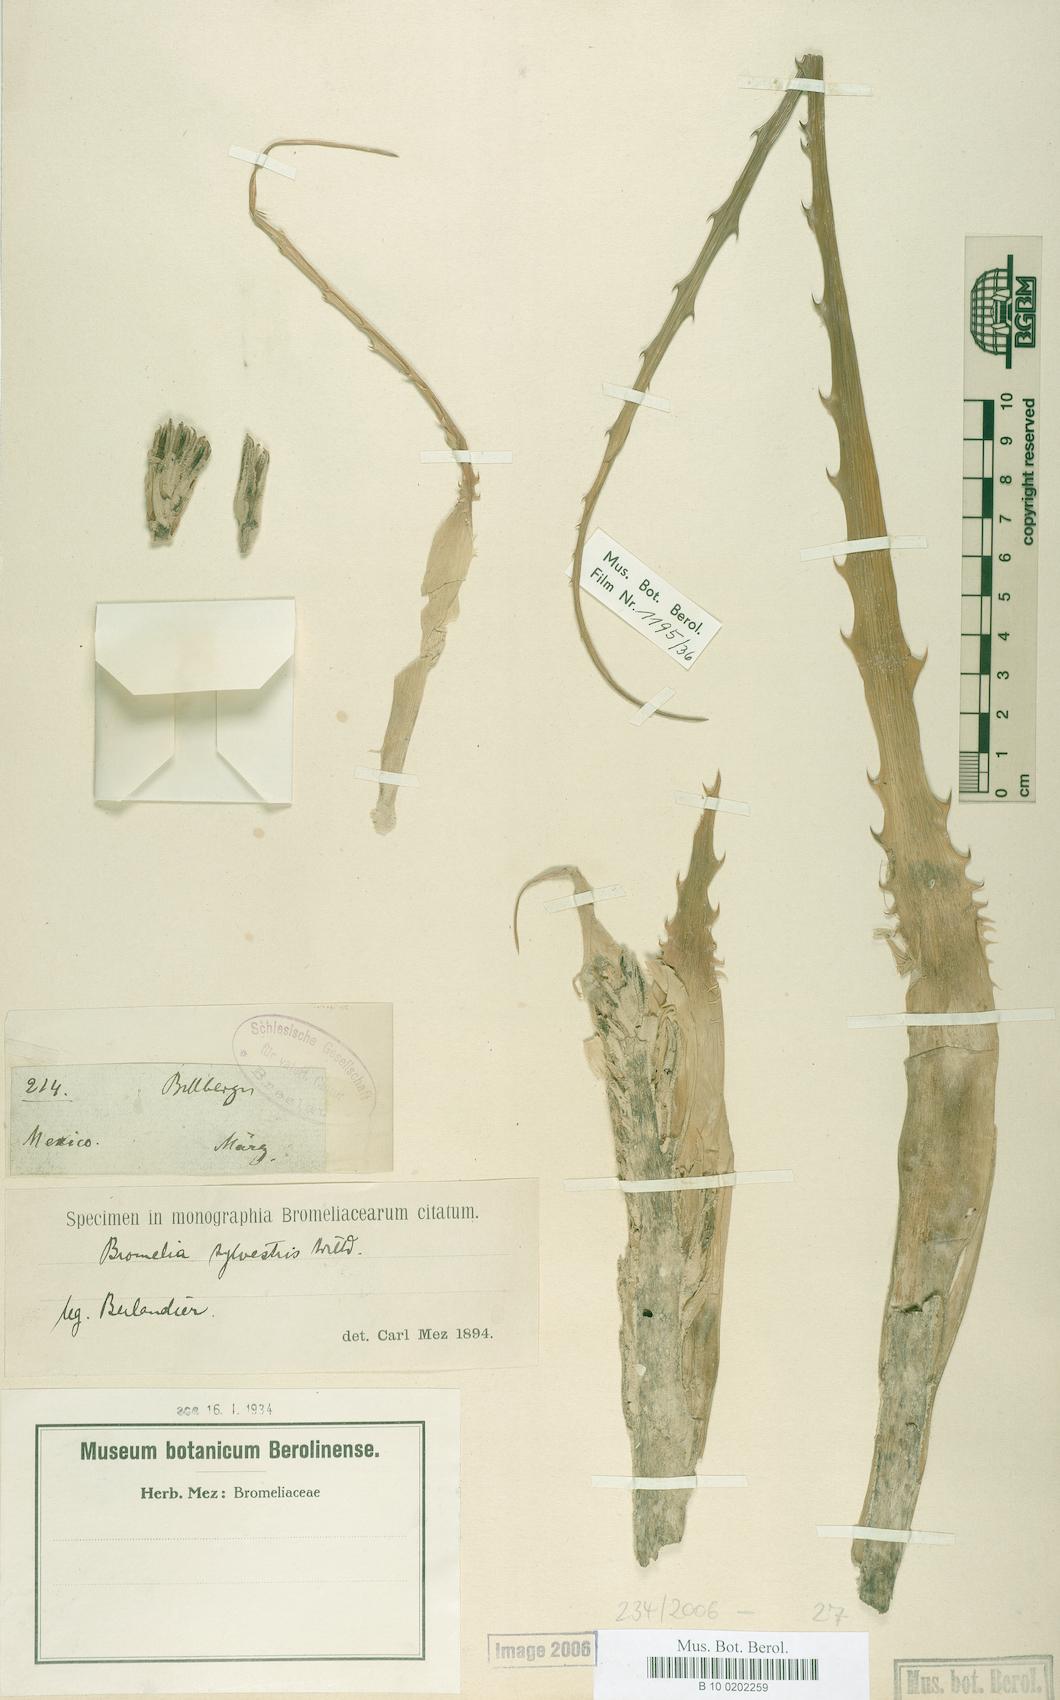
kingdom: Plantae
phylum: Tracheophyta
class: Liliopsida
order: Poales
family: Bromeliaceae
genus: Bromelia
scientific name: Bromelia pinguin
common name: Pinguin
